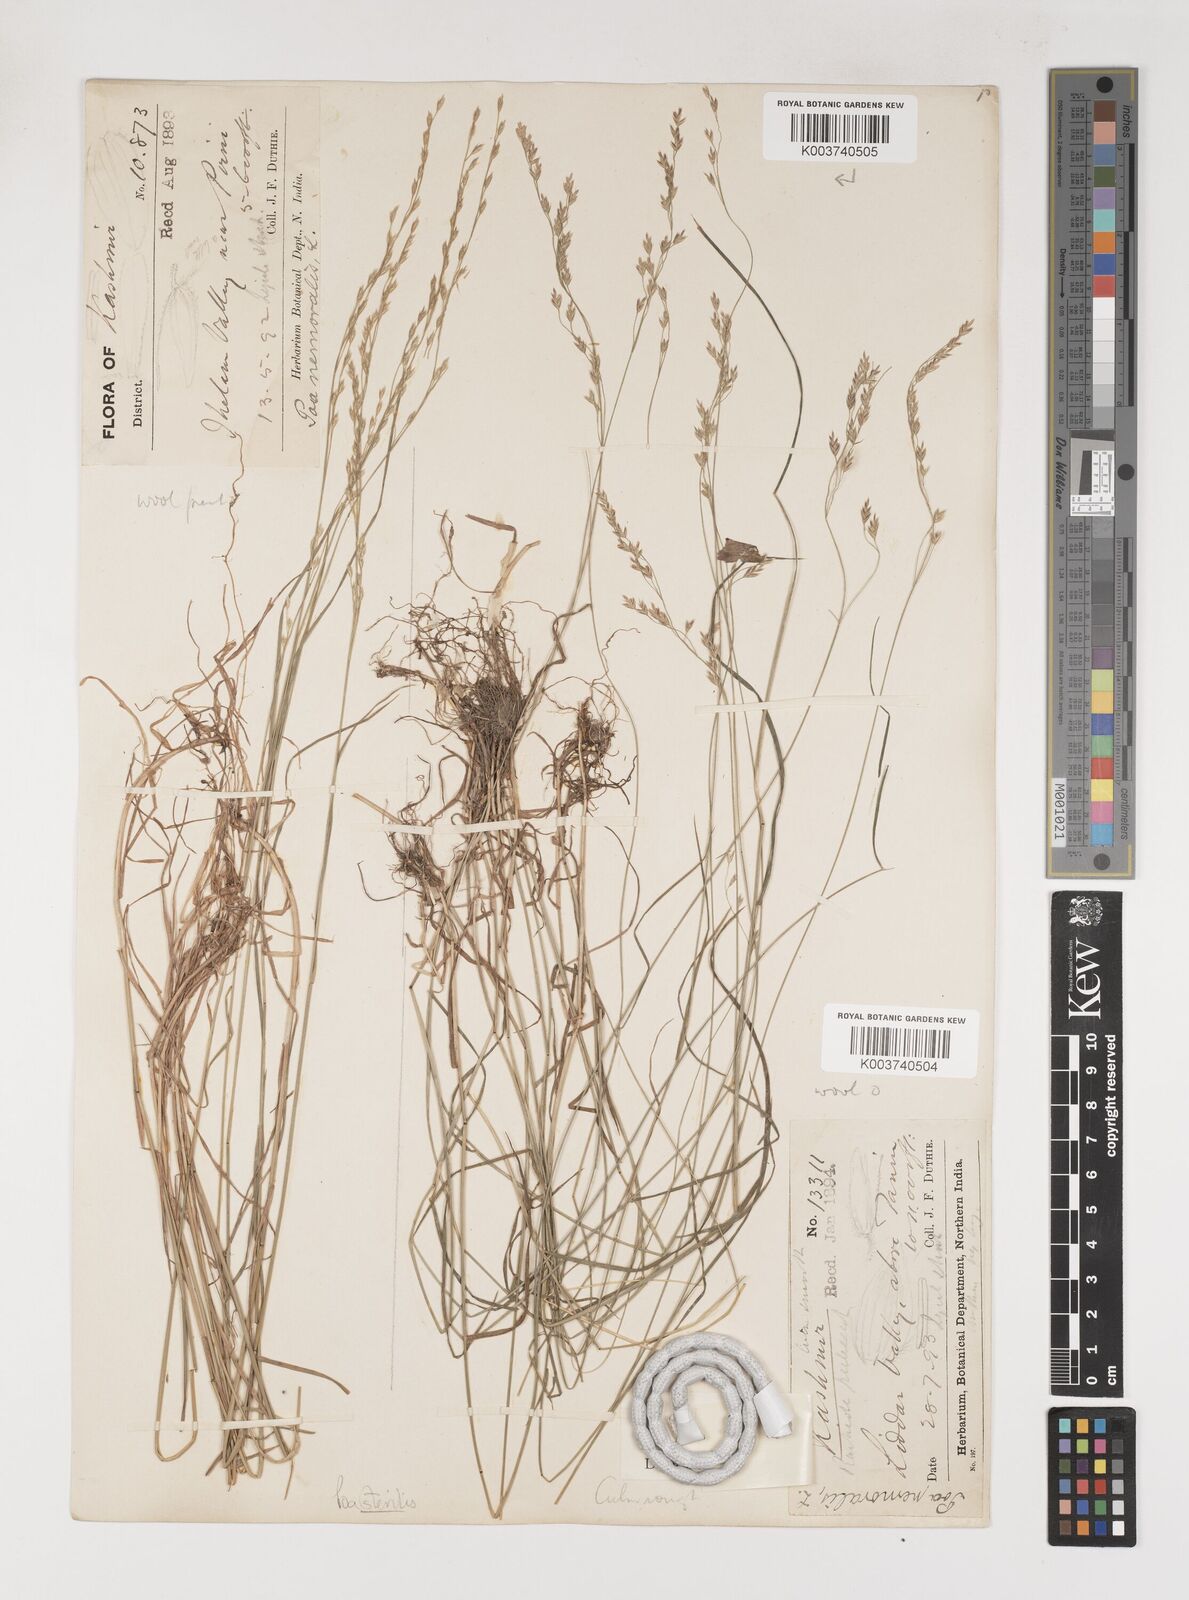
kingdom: Plantae
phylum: Tracheophyta
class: Liliopsida
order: Poales
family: Poaceae
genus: Poa
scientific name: Poa sterilis
